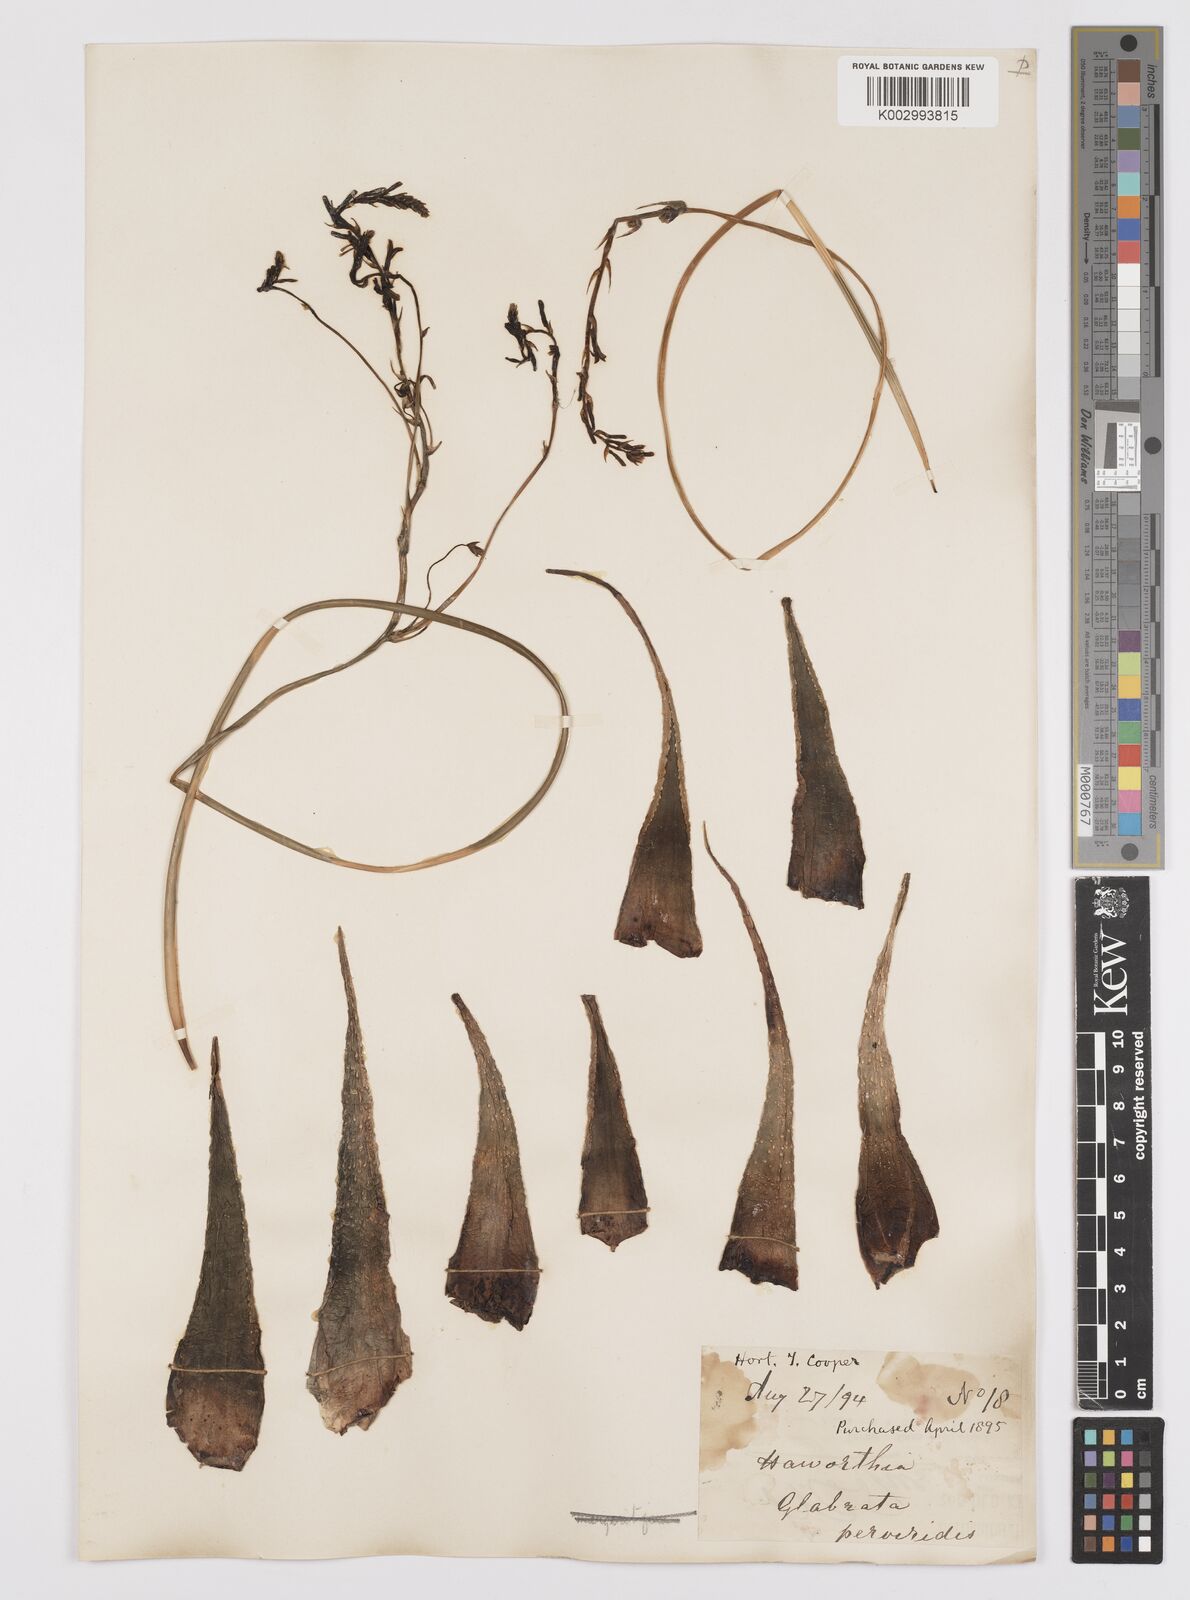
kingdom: Plantae
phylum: Tracheophyta
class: Liliopsida
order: Asparagales
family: Asphodelaceae
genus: Tulista
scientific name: Tulista pumila
